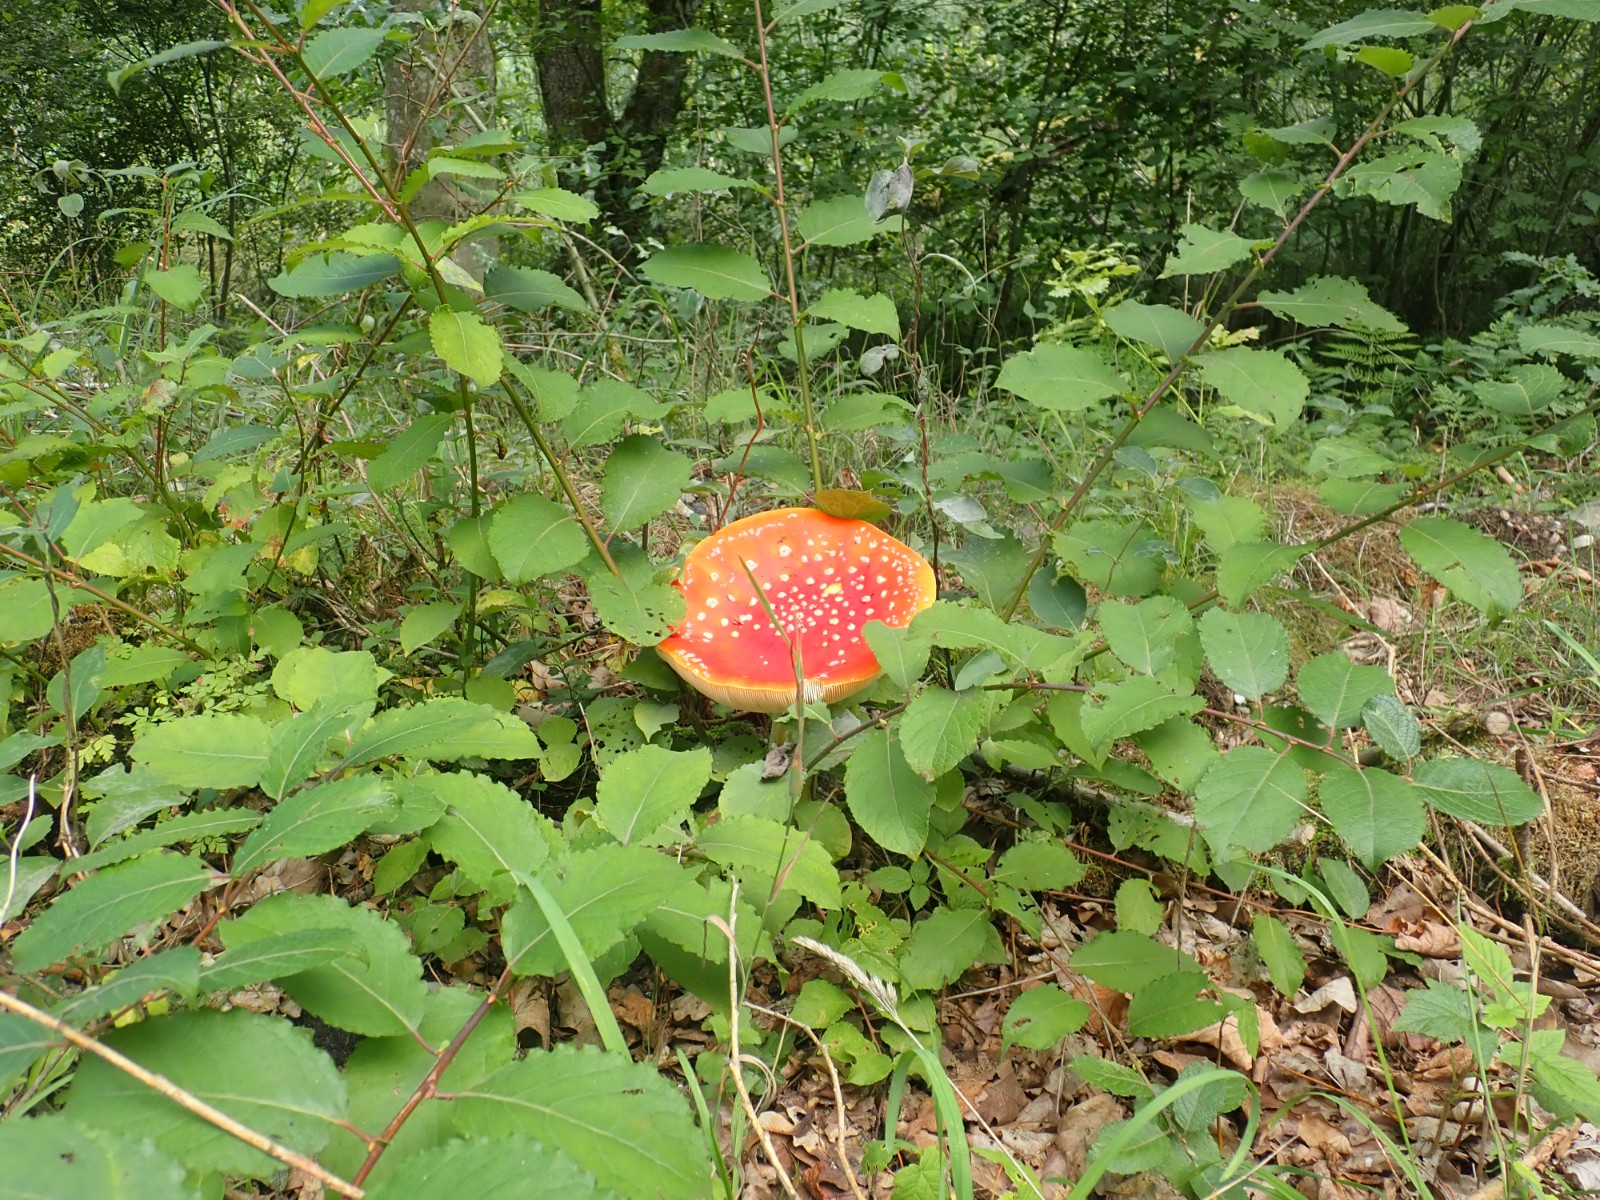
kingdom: Fungi
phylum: Basidiomycota
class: Agaricomycetes
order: Agaricales
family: Amanitaceae
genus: Amanita
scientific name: Amanita muscaria
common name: rød fluesvamp
